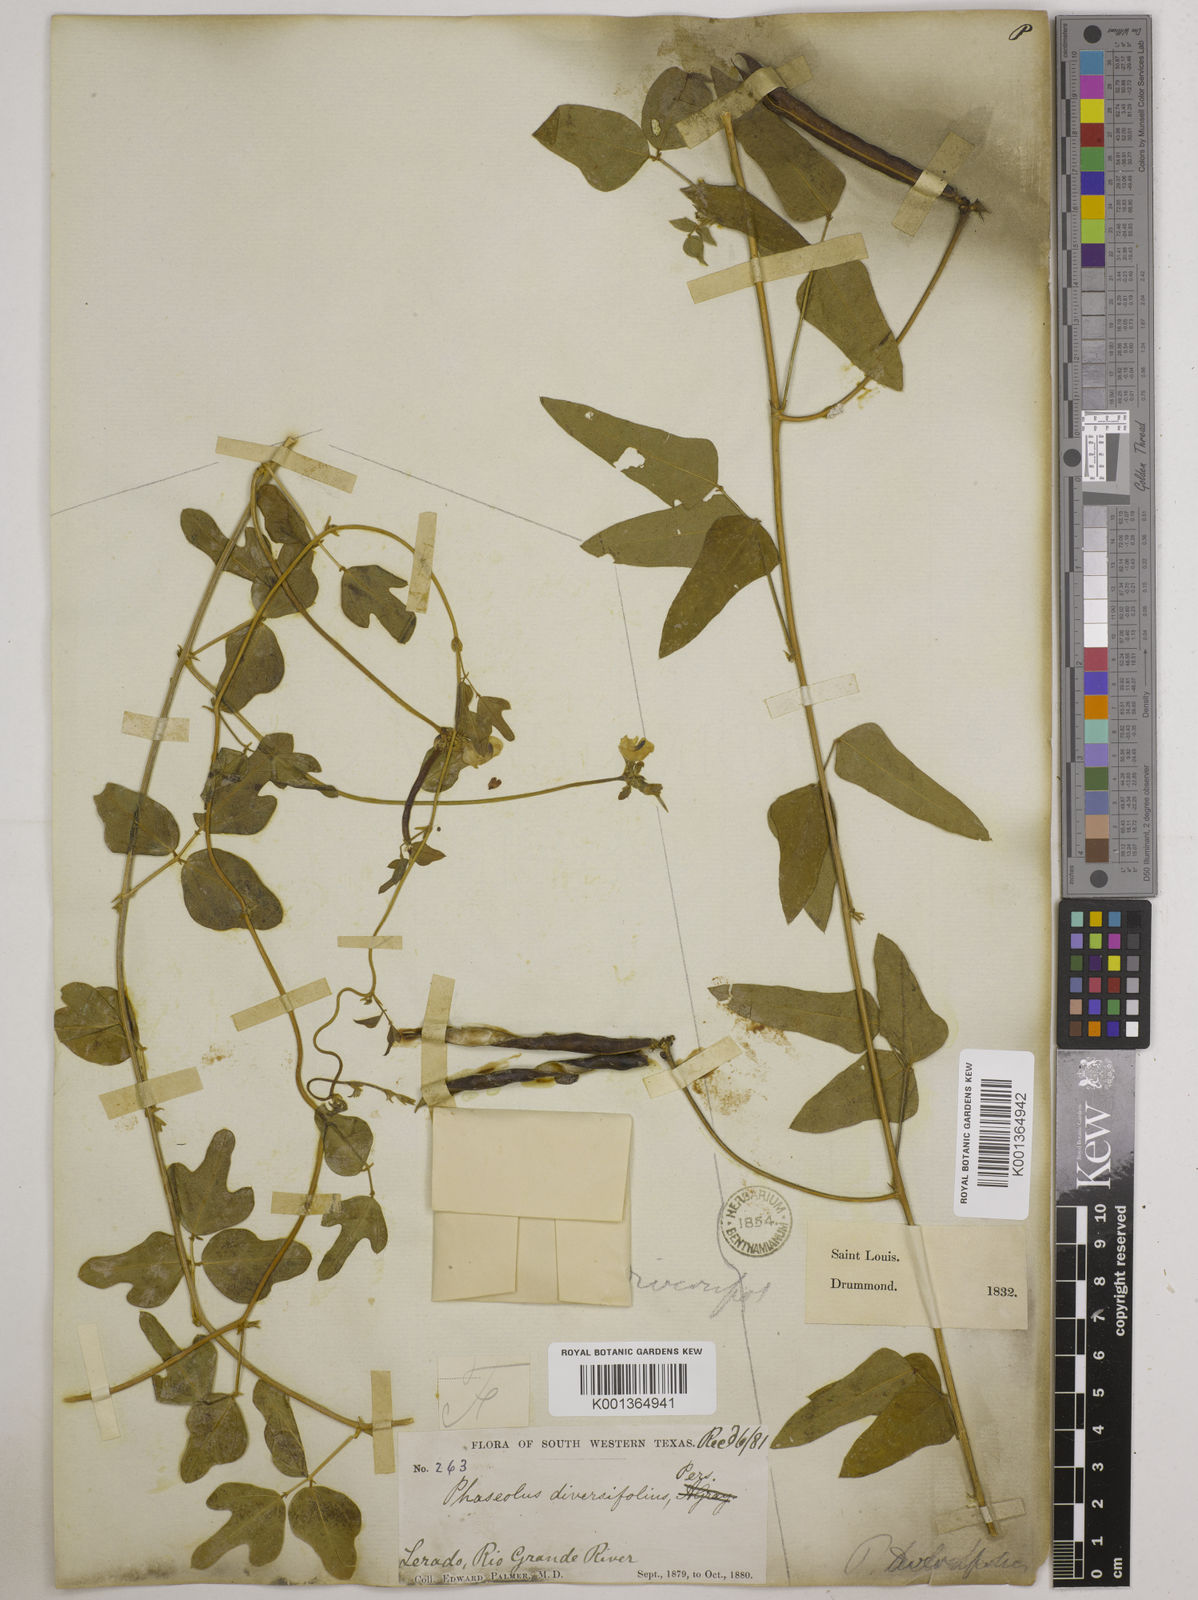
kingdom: Plantae
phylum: Tracheophyta
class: Magnoliopsida
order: Fabales
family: Fabaceae
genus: Strophostyles
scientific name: Strophostyles
